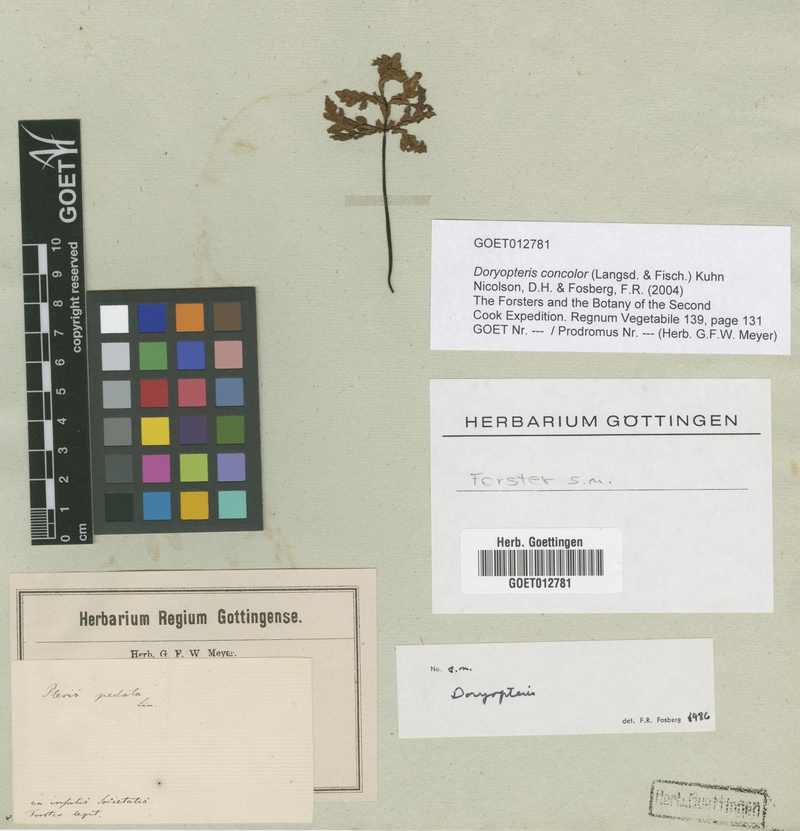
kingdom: Plantae
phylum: Tracheophyta
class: Polypodiopsida
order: Polypodiales
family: Pteridaceae
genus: Doryopteris
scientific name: Doryopteris concolor
